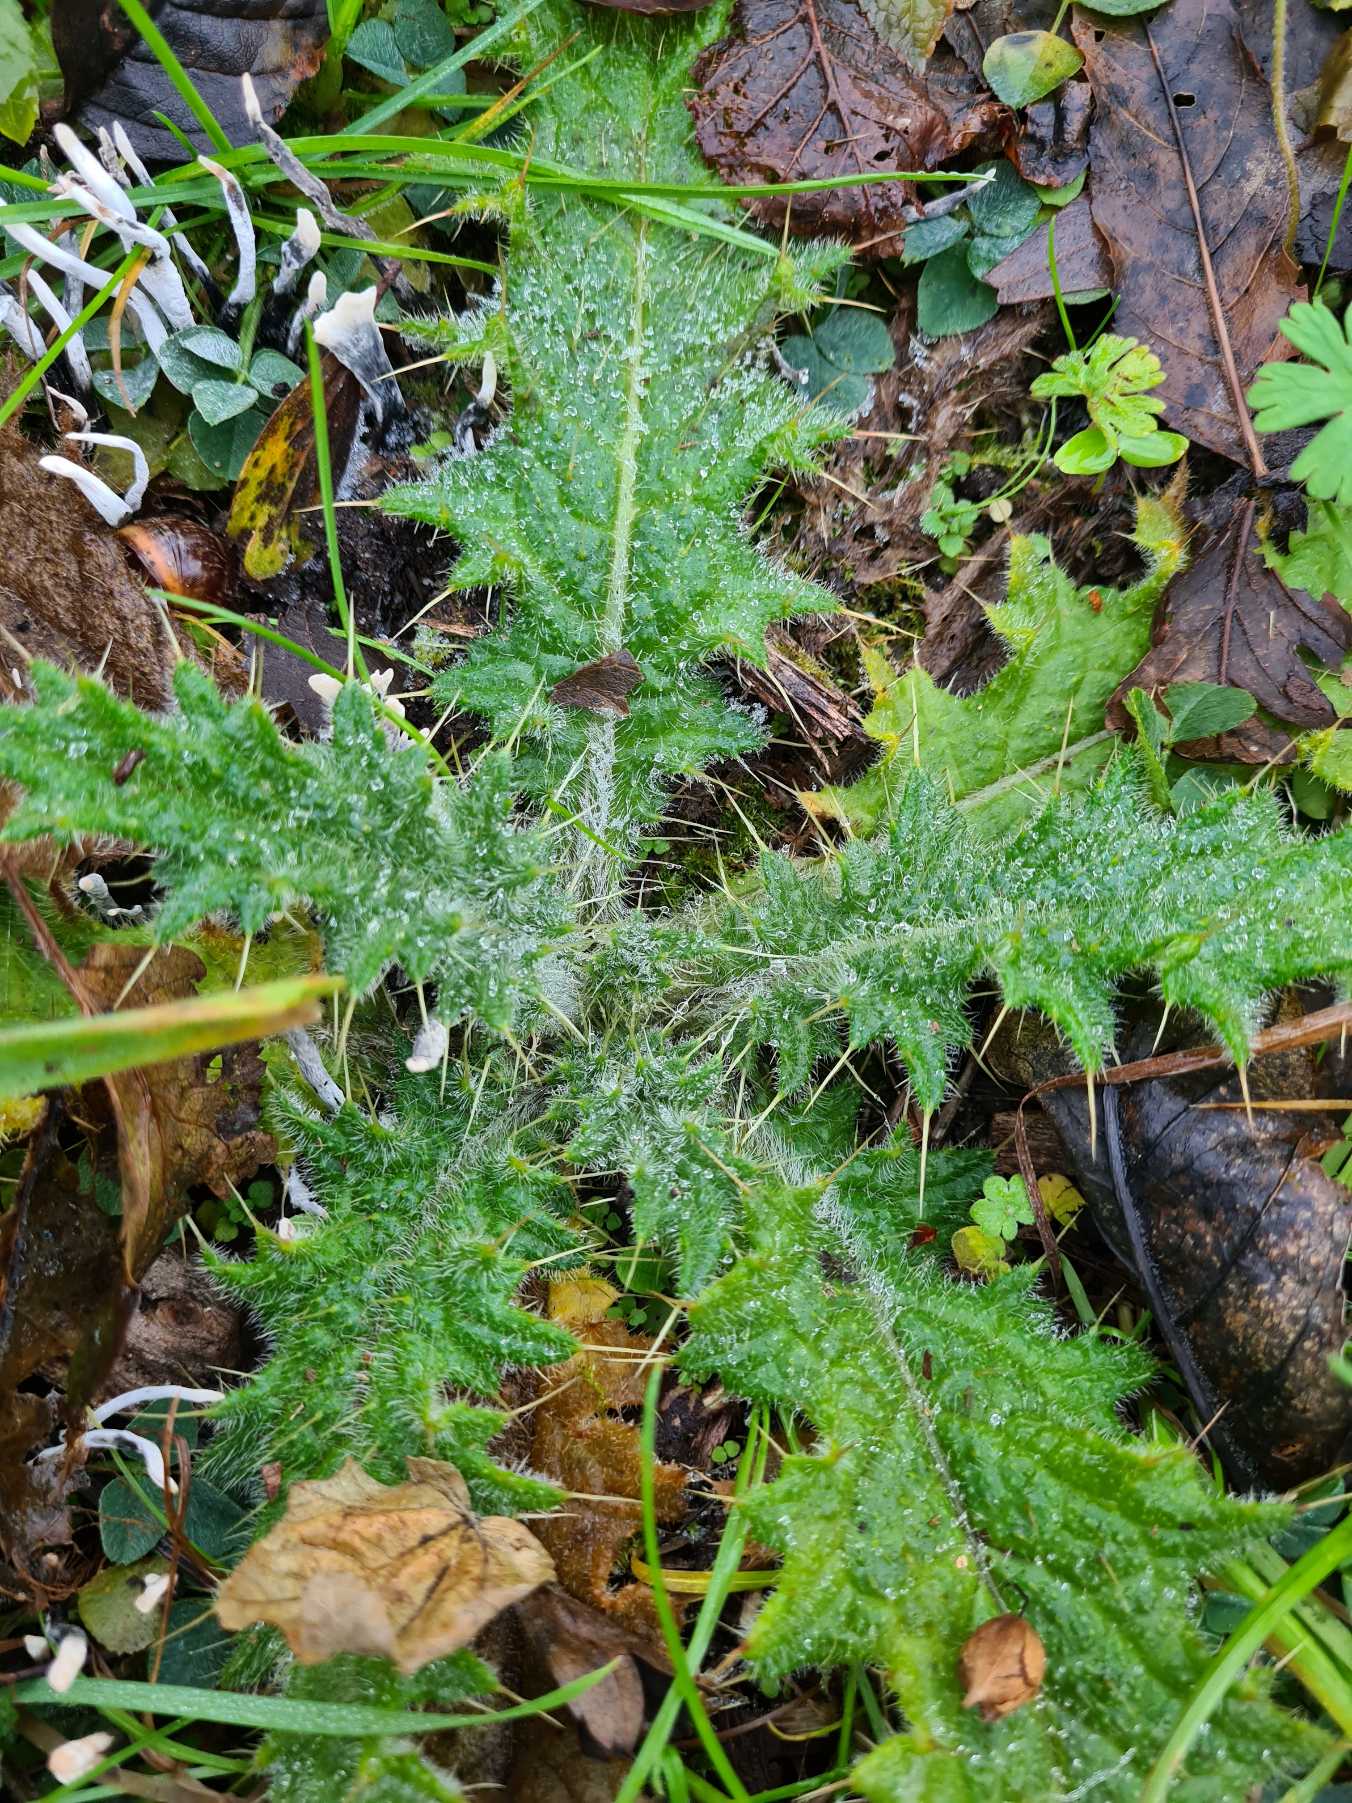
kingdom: Plantae
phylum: Tracheophyta
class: Magnoliopsida
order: Asterales
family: Asteraceae
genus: Cirsium
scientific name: Cirsium vulgare
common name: Horse-tidsel
